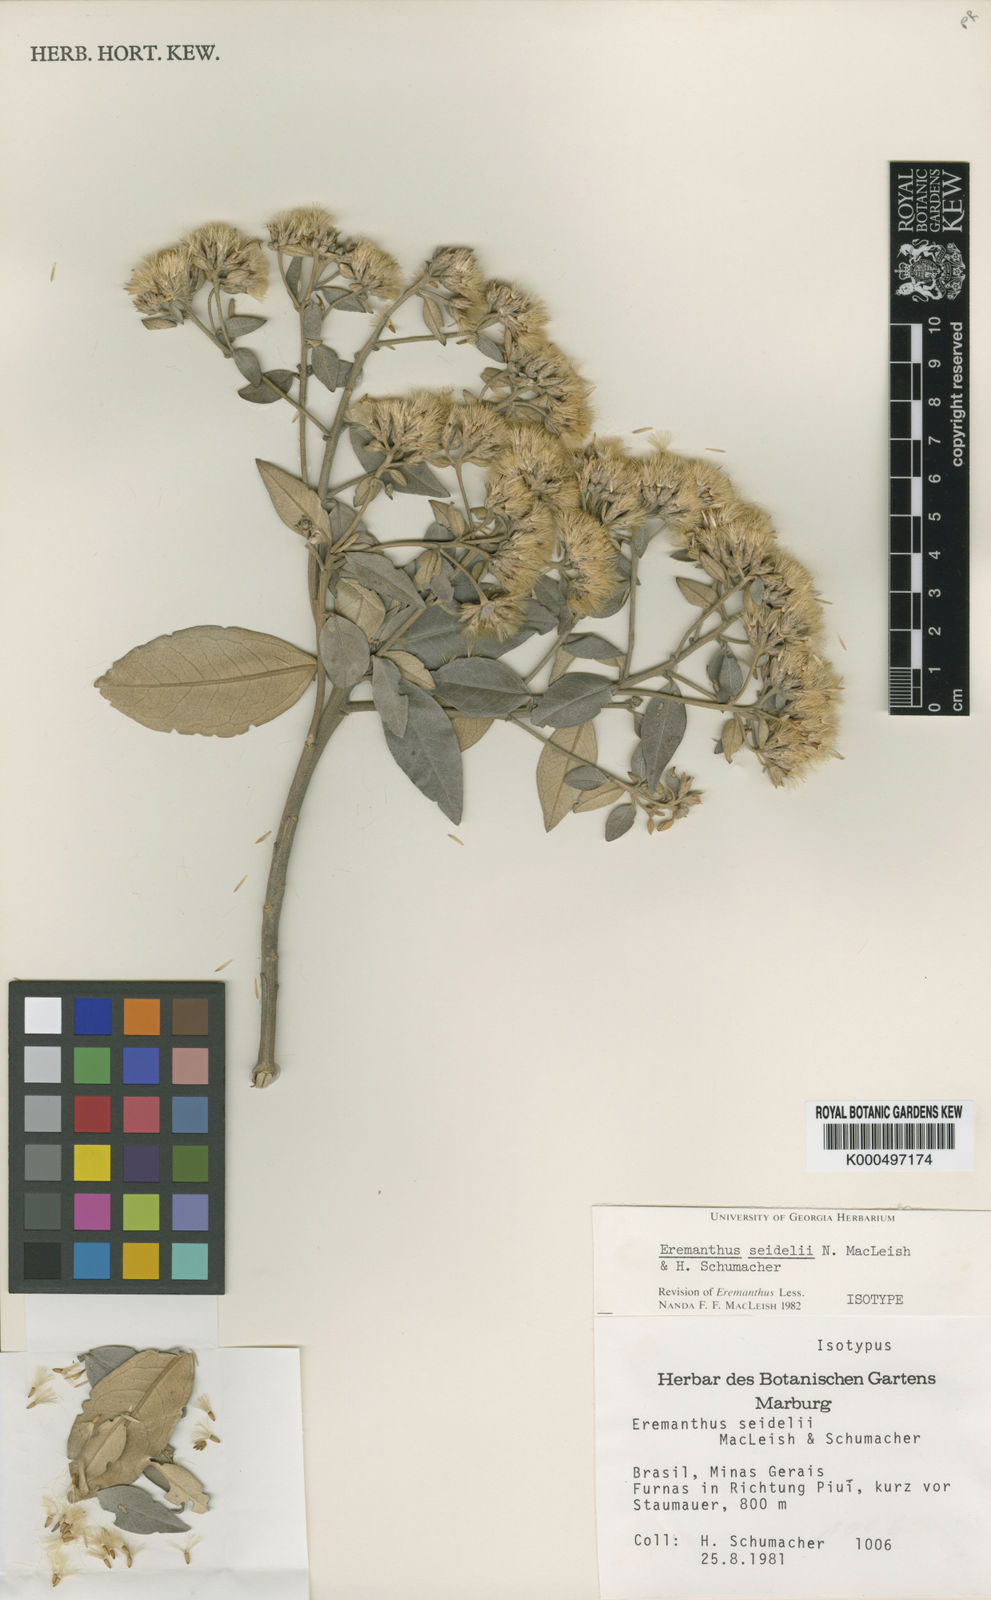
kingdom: Plantae
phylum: Tracheophyta
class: Magnoliopsida
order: Asterales
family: Asteraceae
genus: Eremanthus
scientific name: Eremanthus elaeagnus
